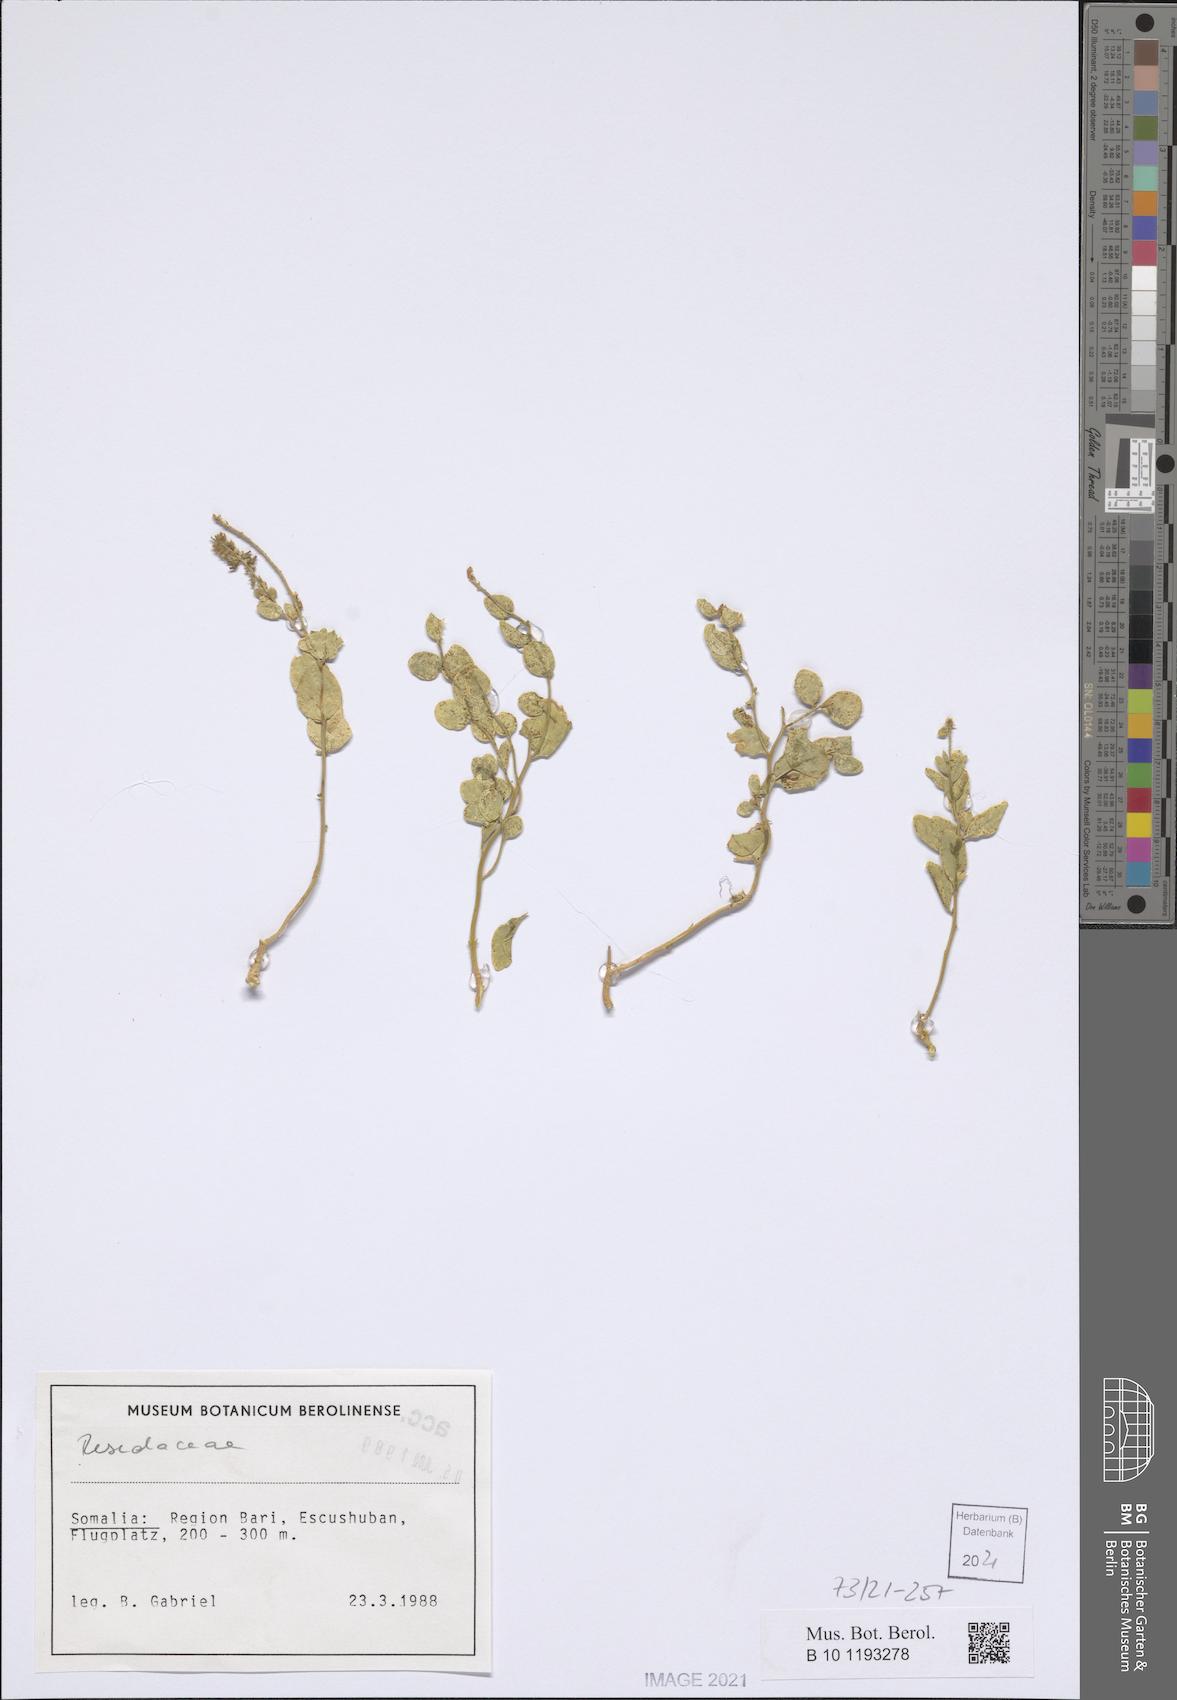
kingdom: Plantae
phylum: Tracheophyta
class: Magnoliopsida
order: Brassicales
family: Resedaceae
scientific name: Resedaceae
